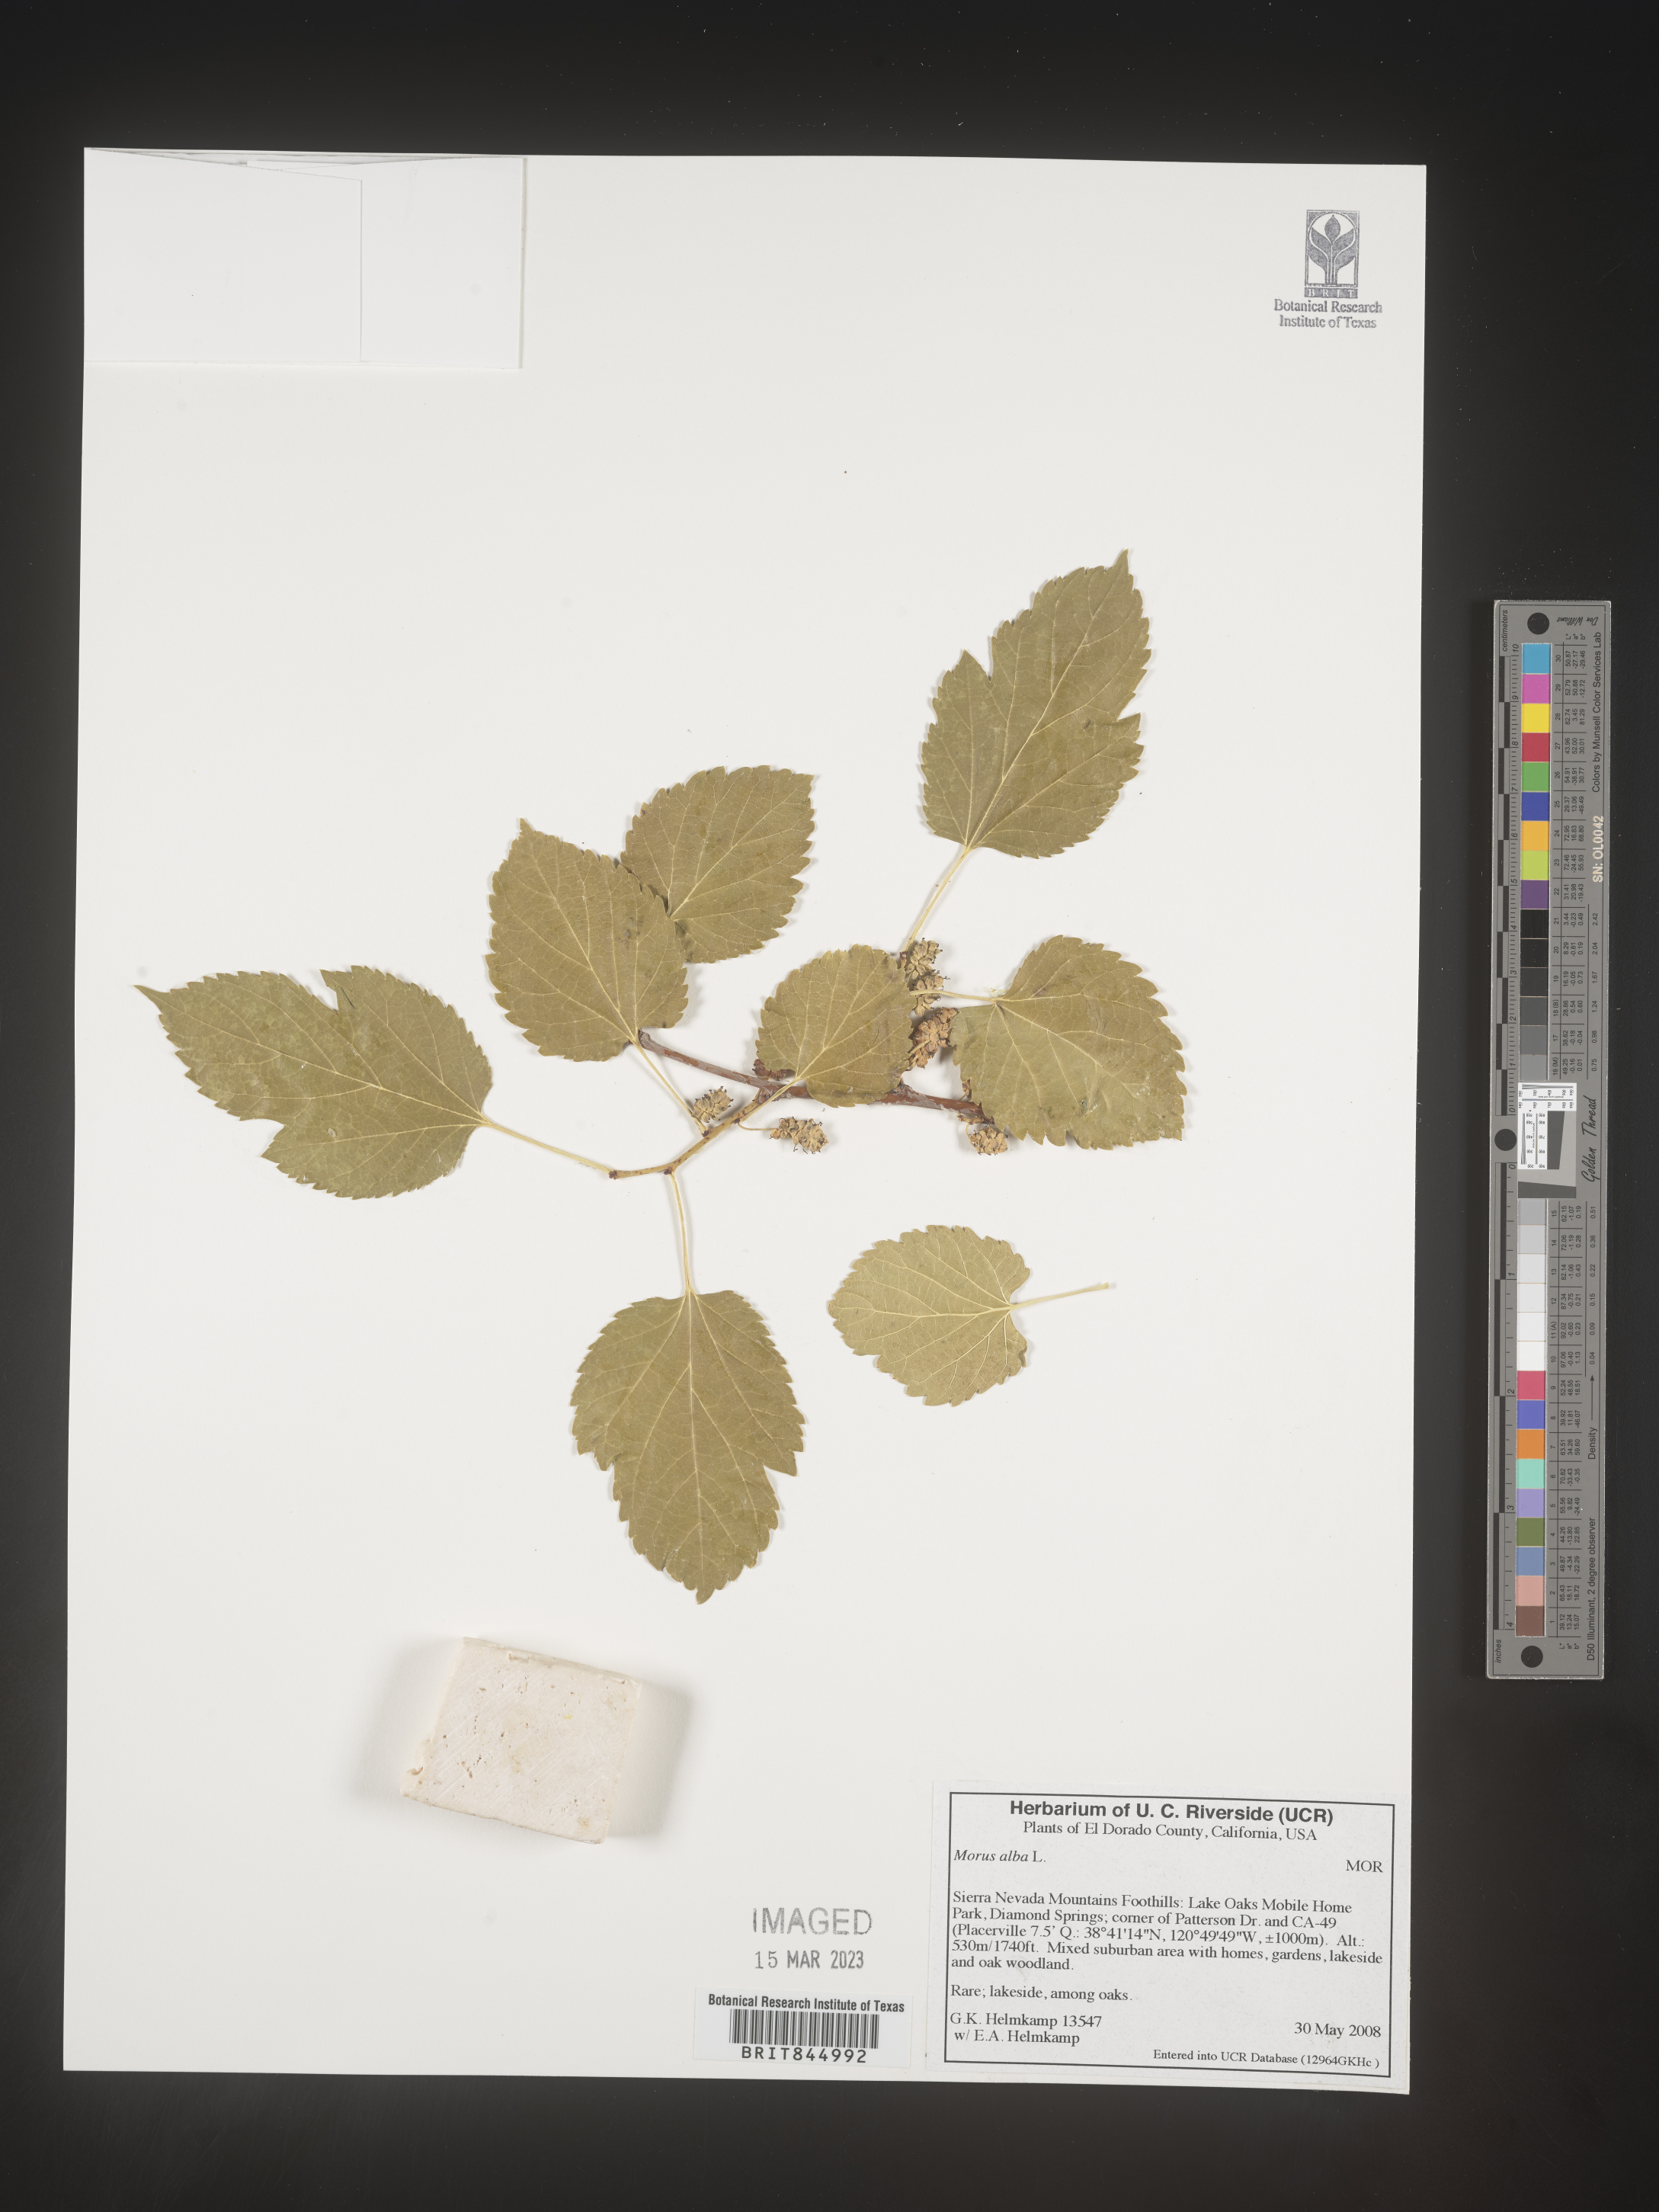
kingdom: Plantae
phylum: Tracheophyta
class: Magnoliopsida
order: Rosales
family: Moraceae
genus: Morus
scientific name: Morus alba
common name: White mulberry
